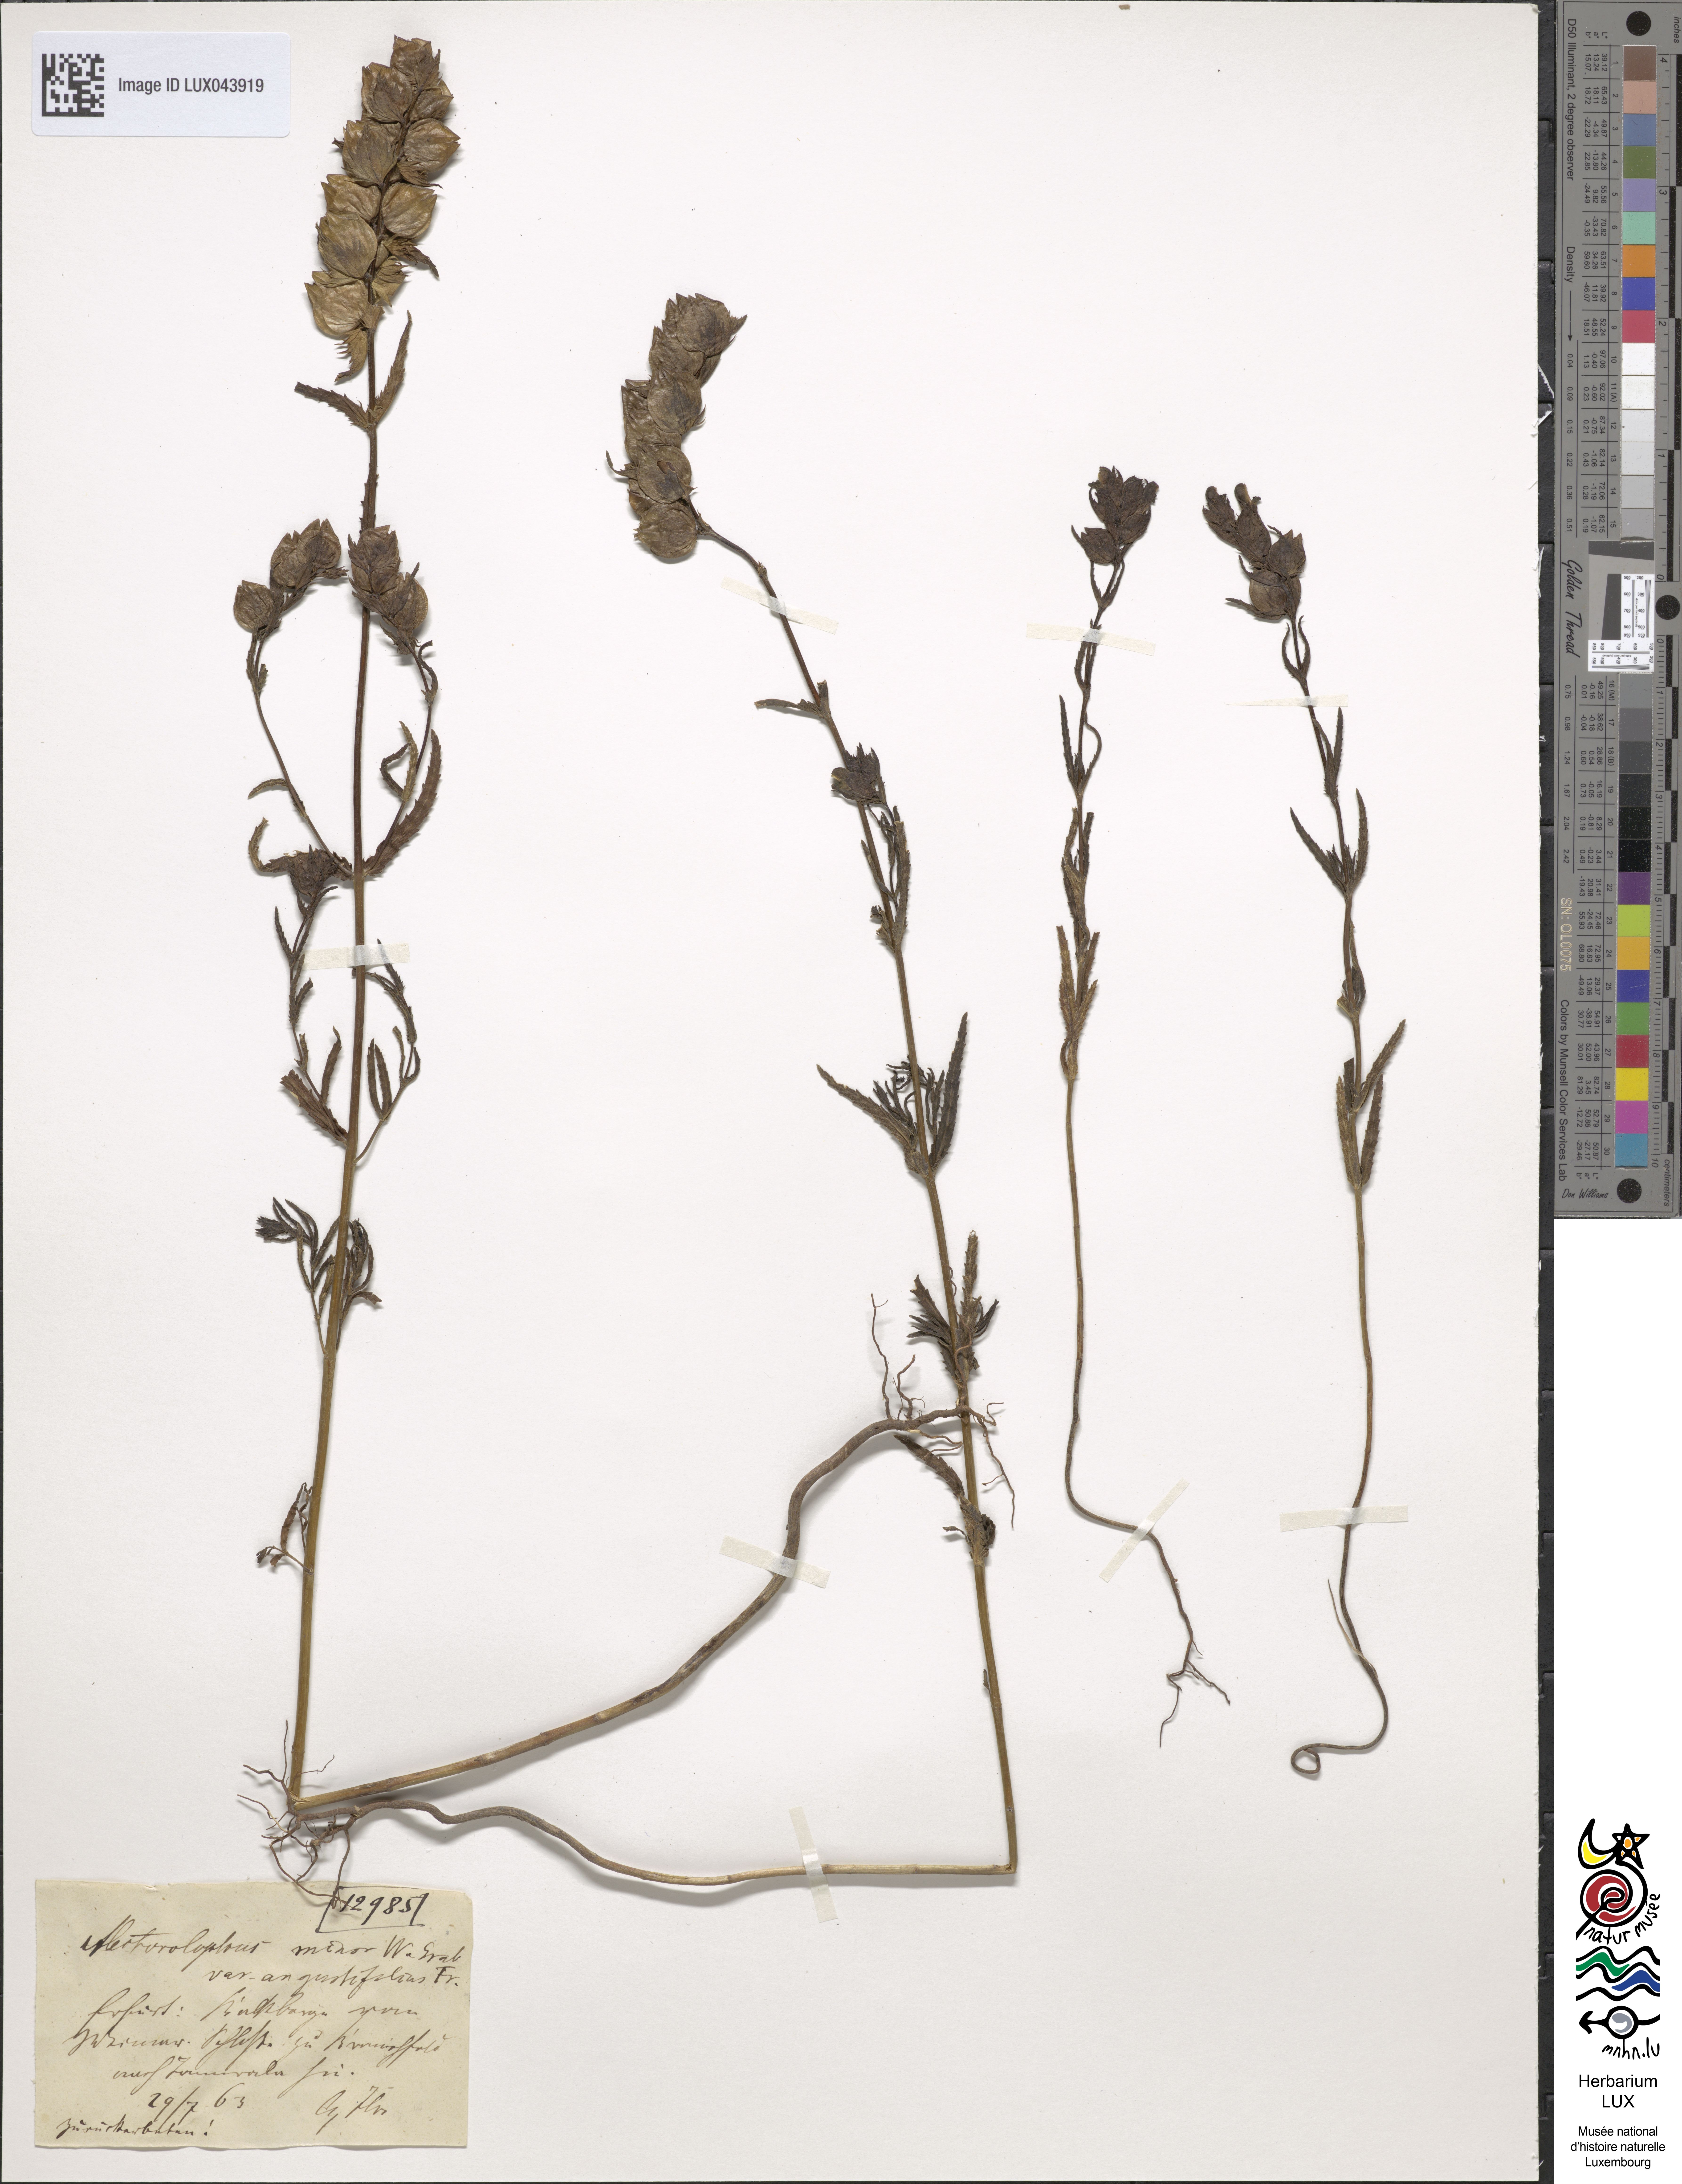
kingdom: Plantae
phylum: Tracheophyta
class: Magnoliopsida
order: Lamiales
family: Orobanchaceae
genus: Rhinanthus
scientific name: Rhinanthus minor
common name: Yellow-rattle
